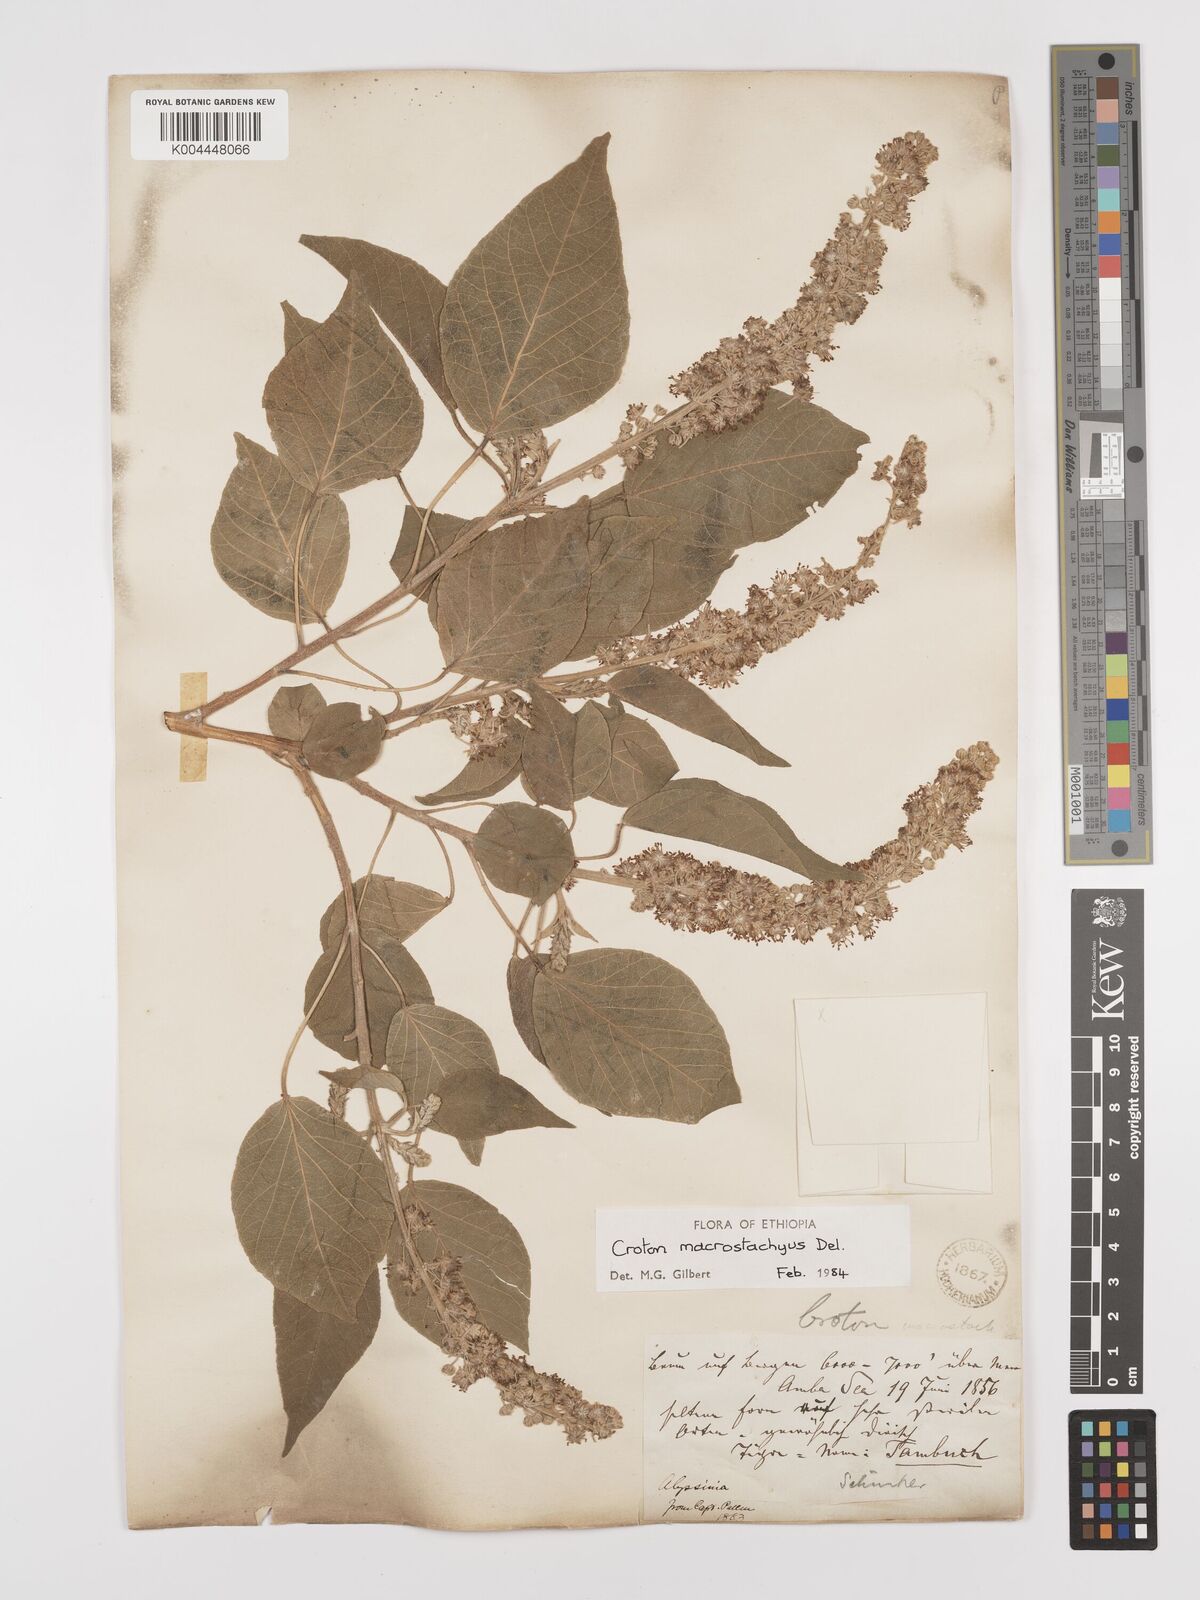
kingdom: Plantae
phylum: Tracheophyta
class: Magnoliopsida
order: Malpighiales
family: Euphorbiaceae
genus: Croton
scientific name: Croton macrostachyus
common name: Mutundu
